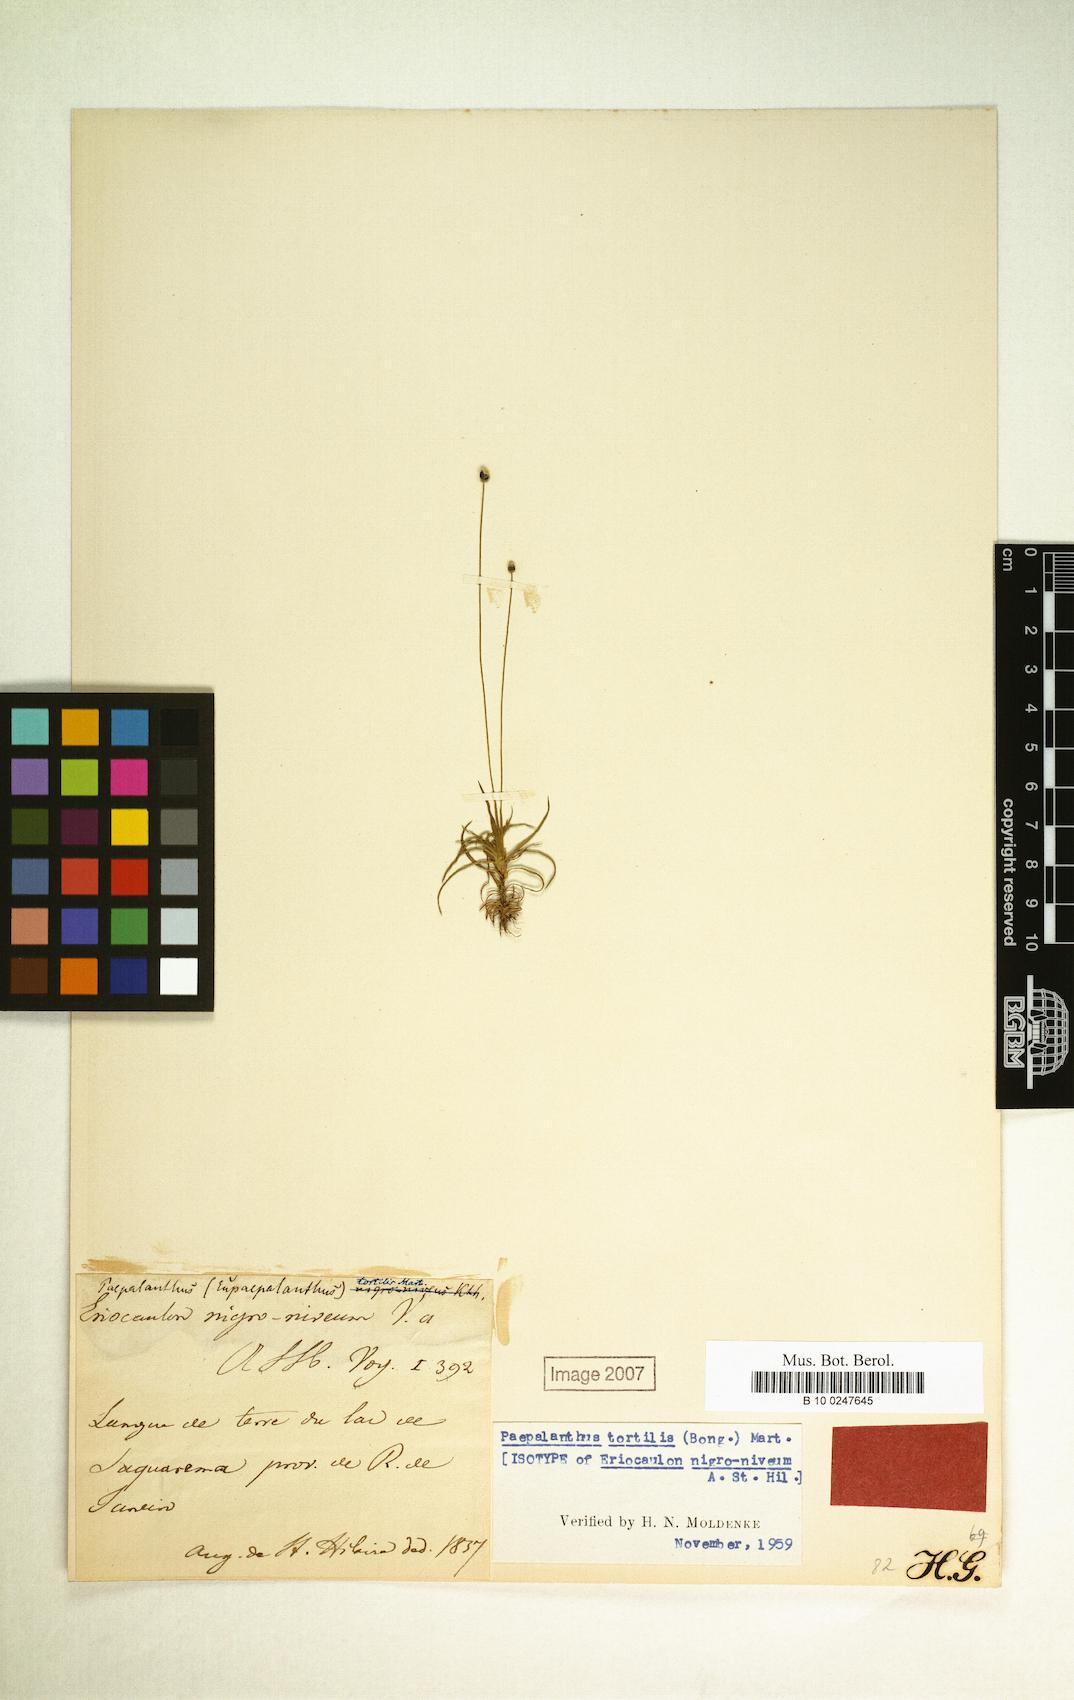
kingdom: Plantae
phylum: Tracheophyta
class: Liliopsida
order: Poales
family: Eriocaulaceae
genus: Paepalanthus
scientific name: Paepalanthus tortilis
